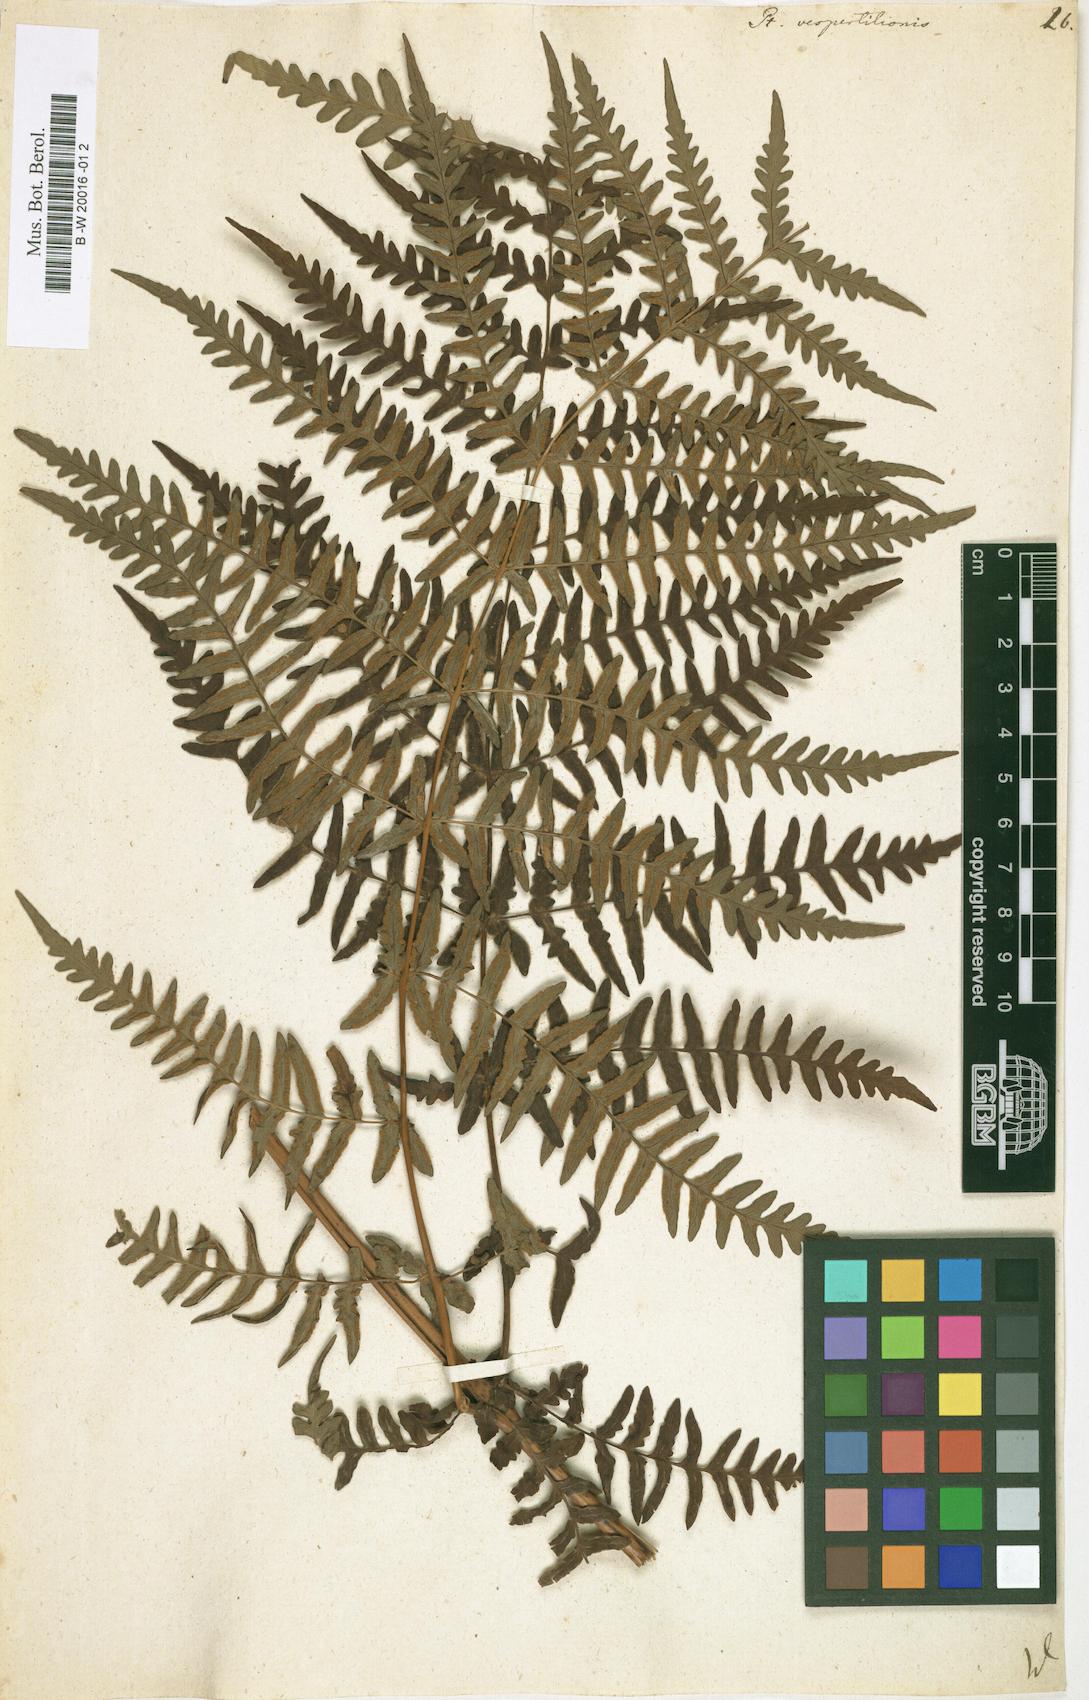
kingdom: Plantae
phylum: Tracheophyta
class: Polypodiopsida
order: Polypodiales
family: Dennstaedtiaceae
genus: Histiopteris
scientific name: Histiopteris incisa
